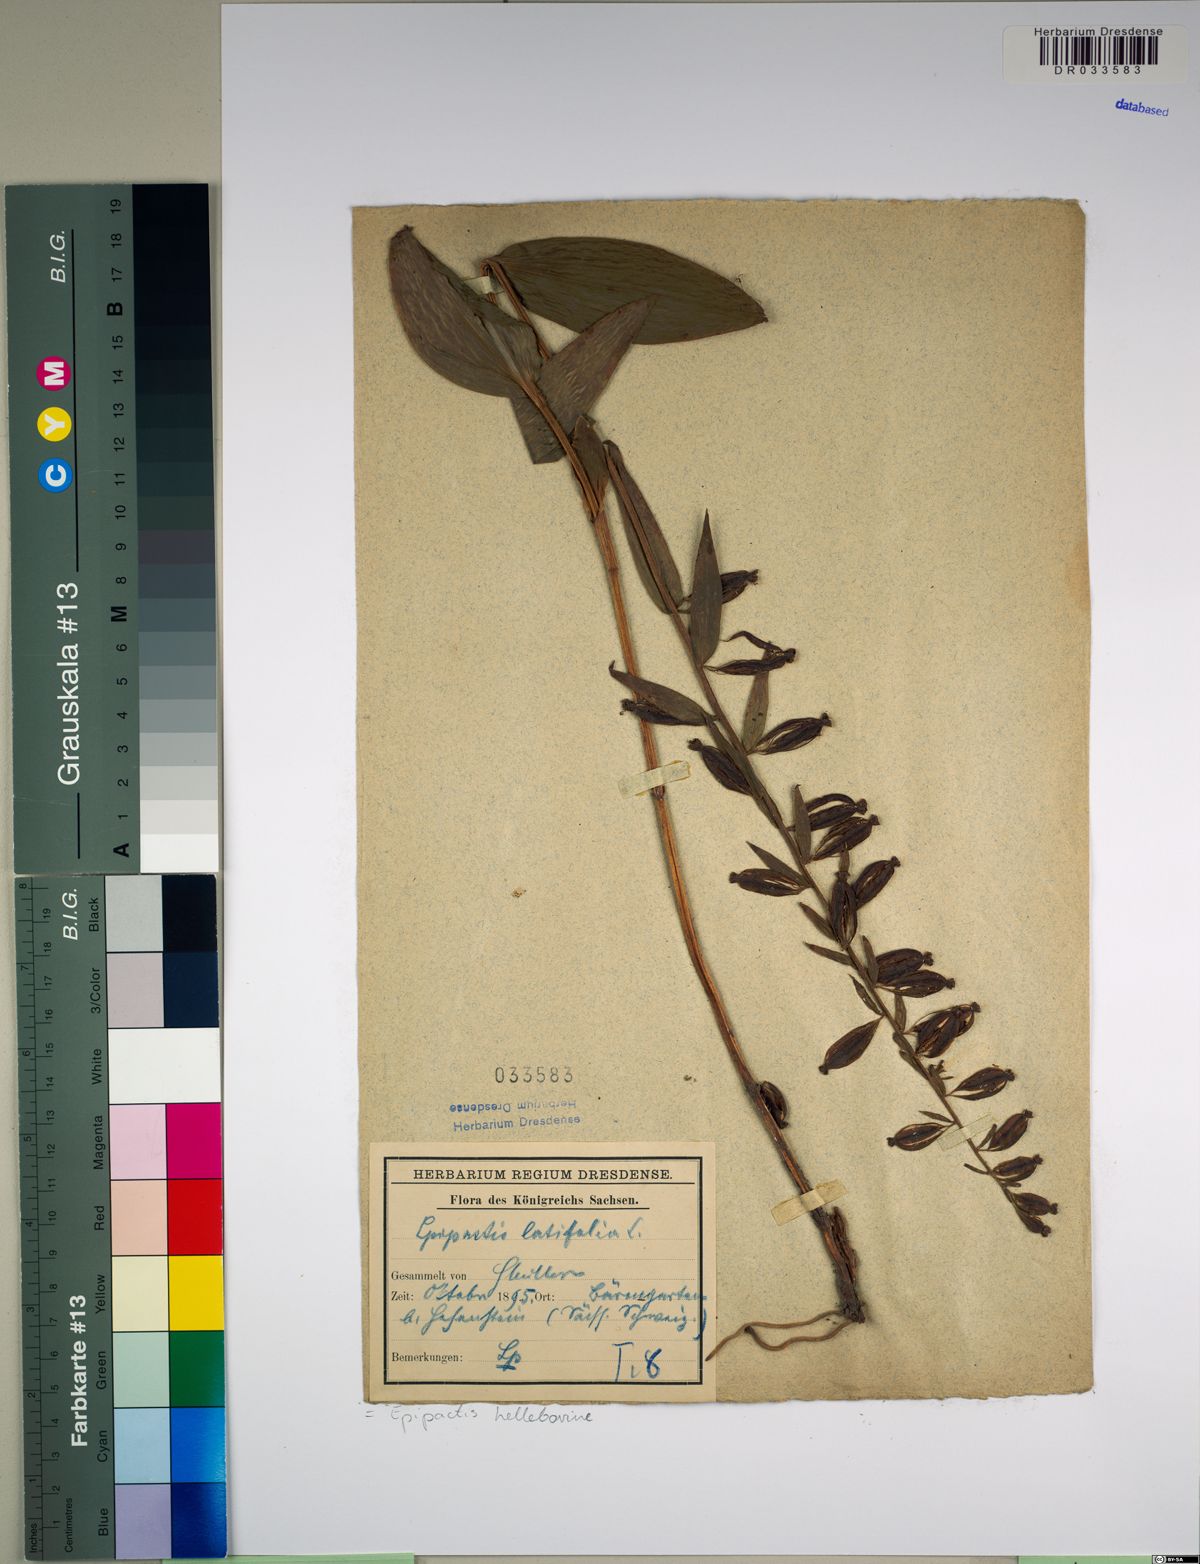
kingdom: Plantae
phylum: Tracheophyta
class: Liliopsida
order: Asparagales
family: Orchidaceae
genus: Epipactis
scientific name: Epipactis helleborine
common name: Broad-leaved helleborine
